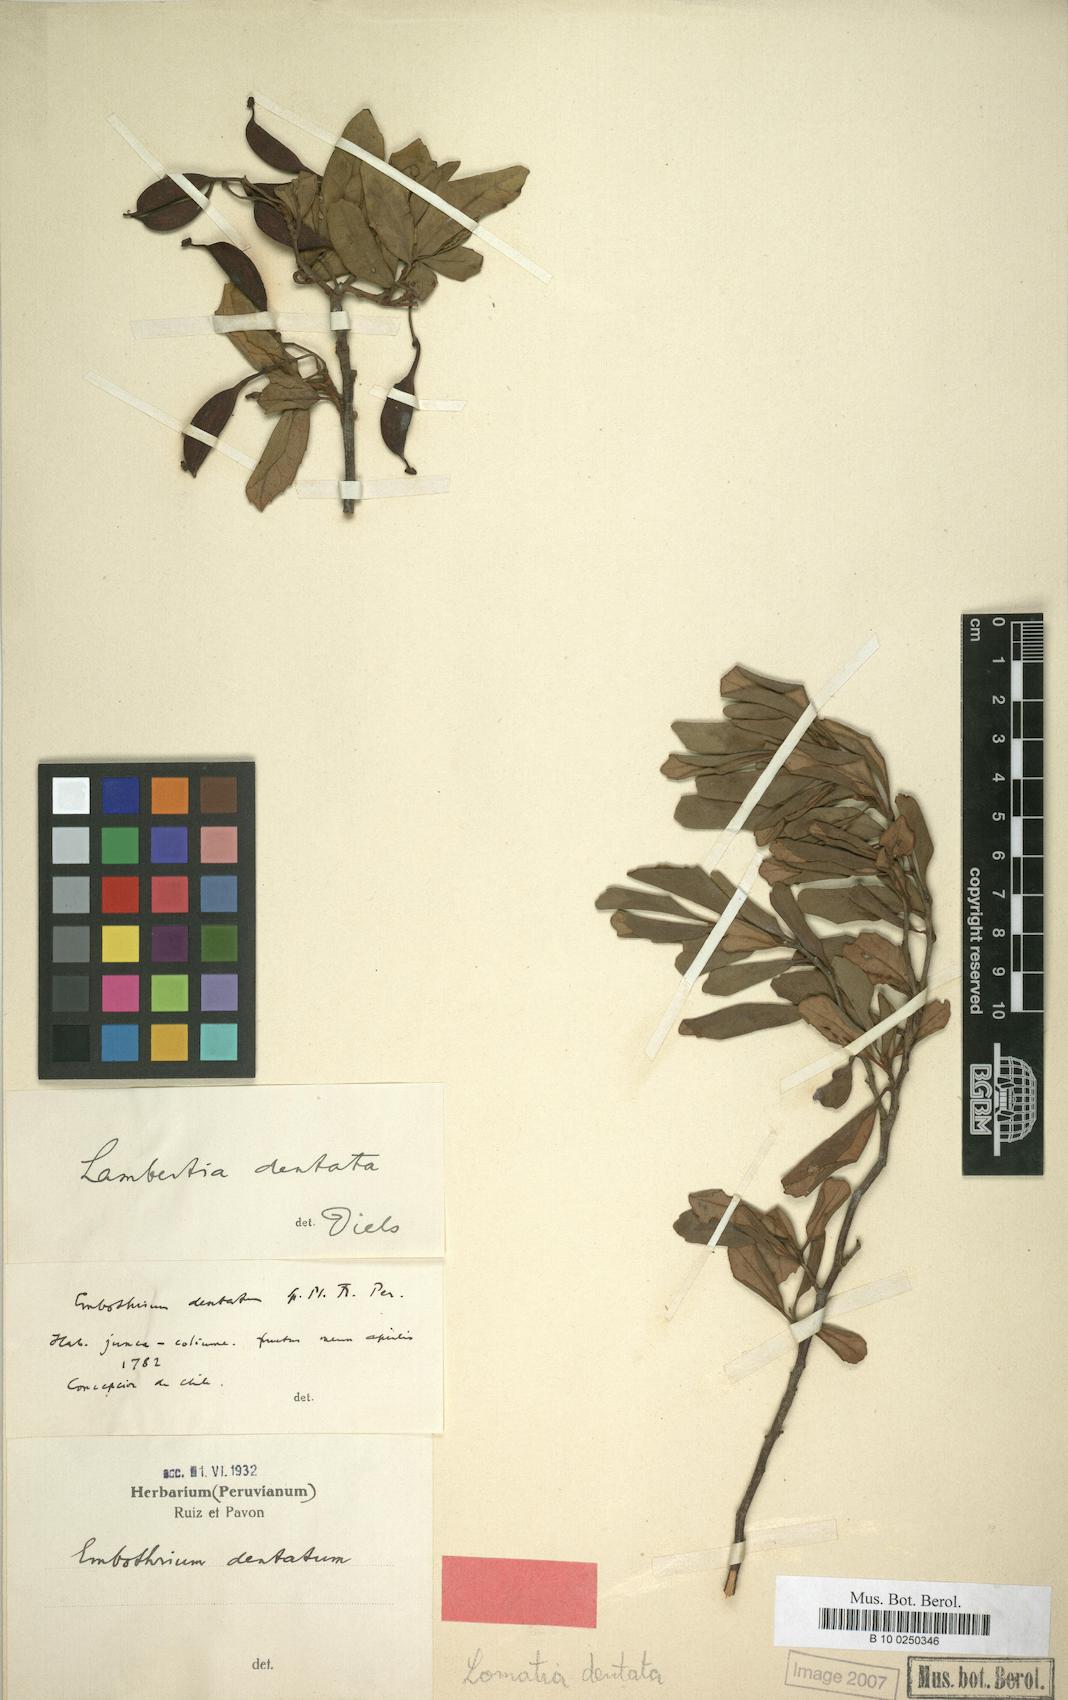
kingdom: Plantae
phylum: Tracheophyta
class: Magnoliopsida
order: Proteales
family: Proteaceae
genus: Lomatia
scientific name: Lomatia dentata
